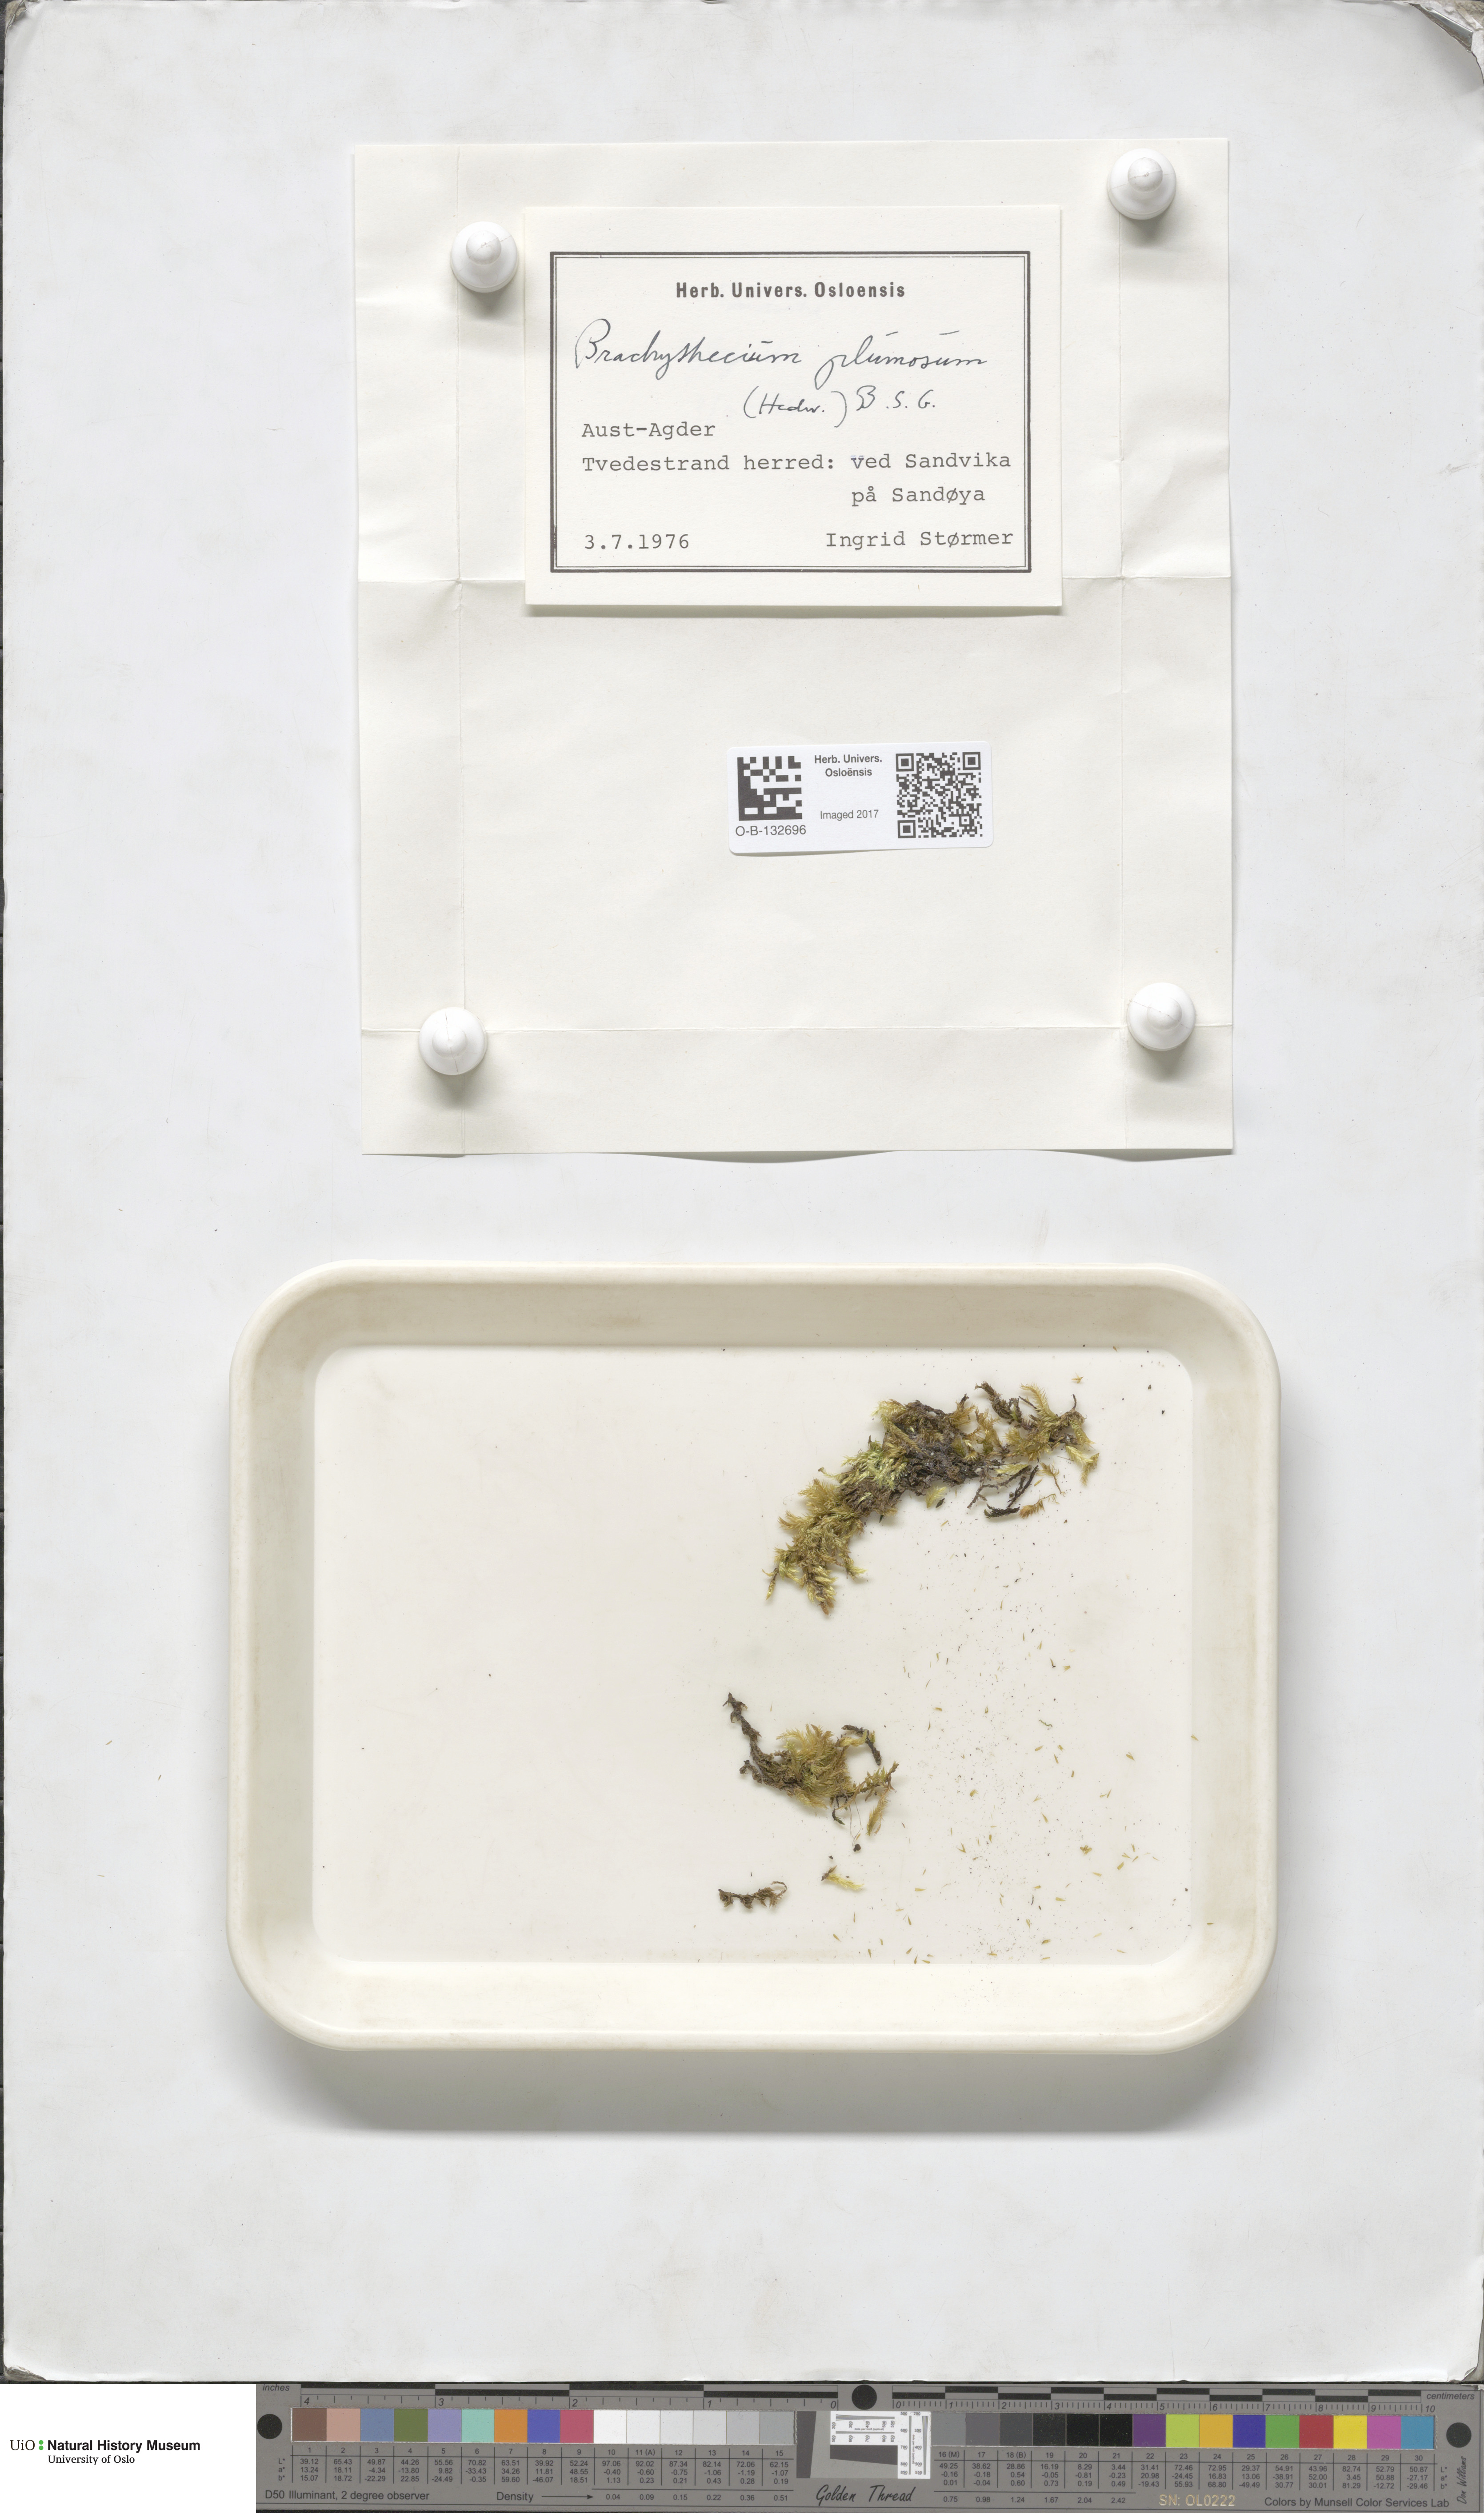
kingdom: Plantae
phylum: Bryophyta
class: Bryopsida
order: Hypnales
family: Brachytheciaceae
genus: Sciuro-hypnum
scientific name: Sciuro-hypnum plumosum
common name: Rusty feather-moss
